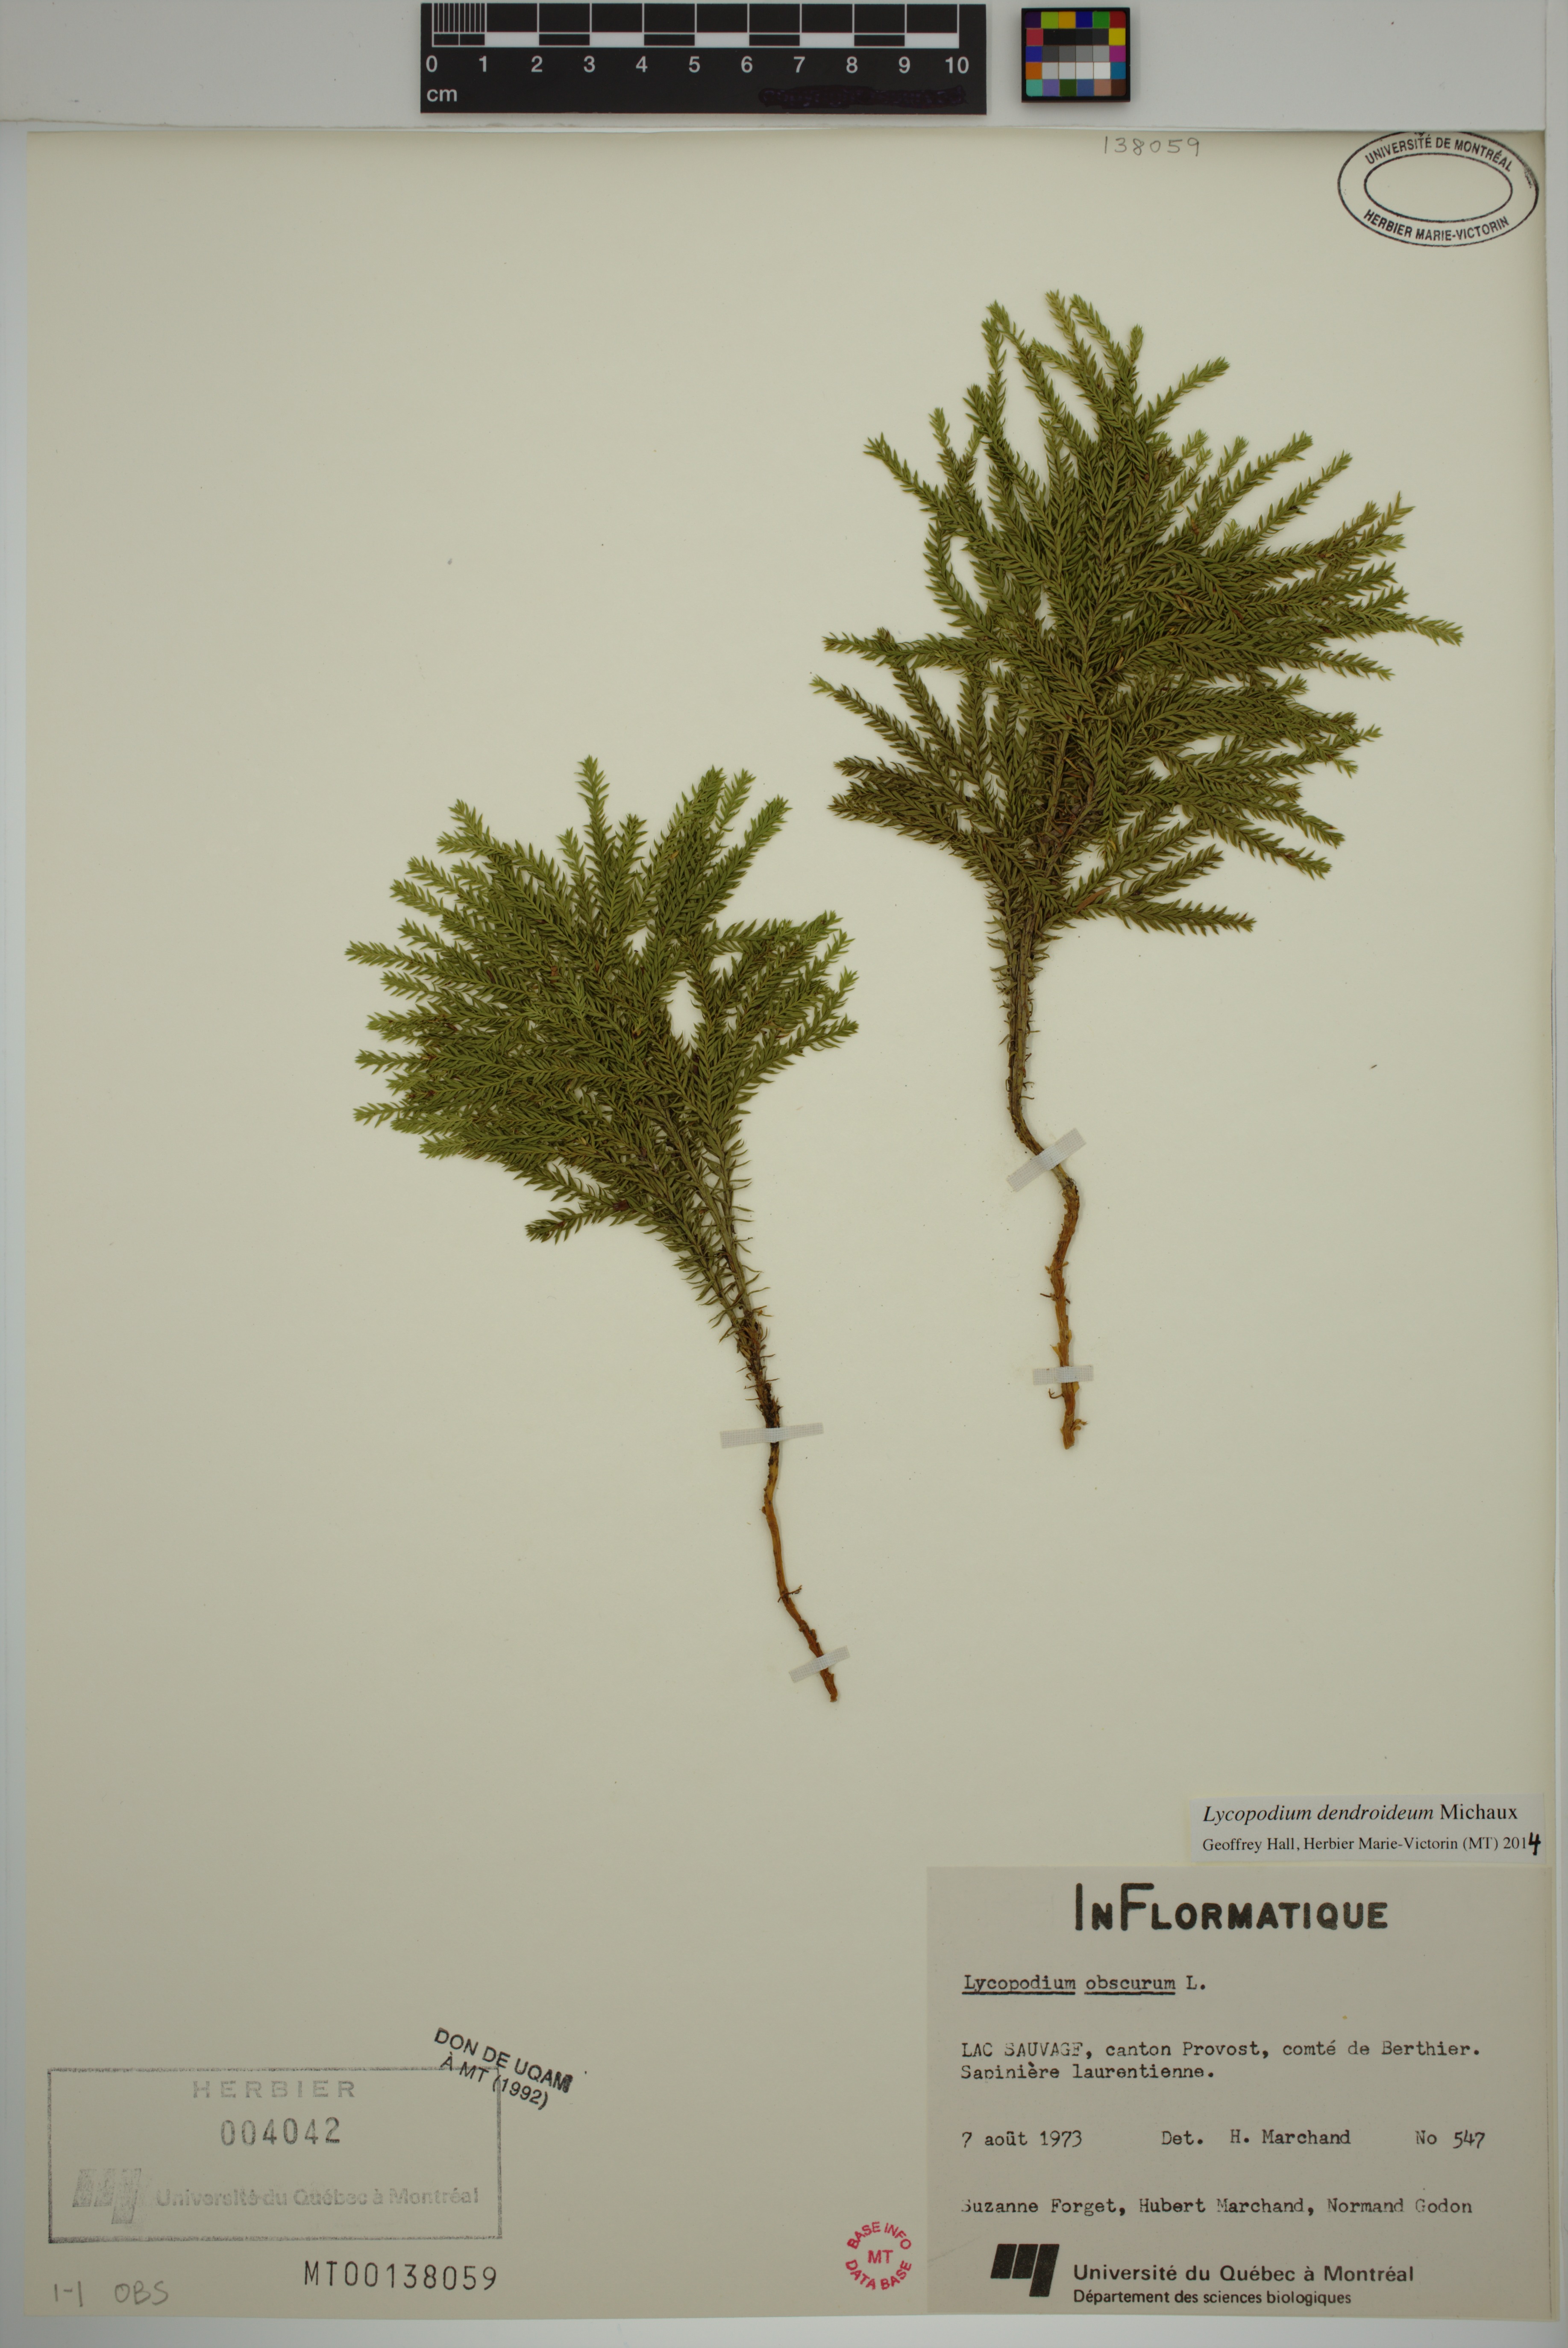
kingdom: Plantae
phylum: Tracheophyta
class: Lycopodiopsida
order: Lycopodiales
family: Lycopodiaceae
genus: Dendrolycopodium
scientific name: Dendrolycopodium dendroideum
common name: Northern tree-clubmoss
